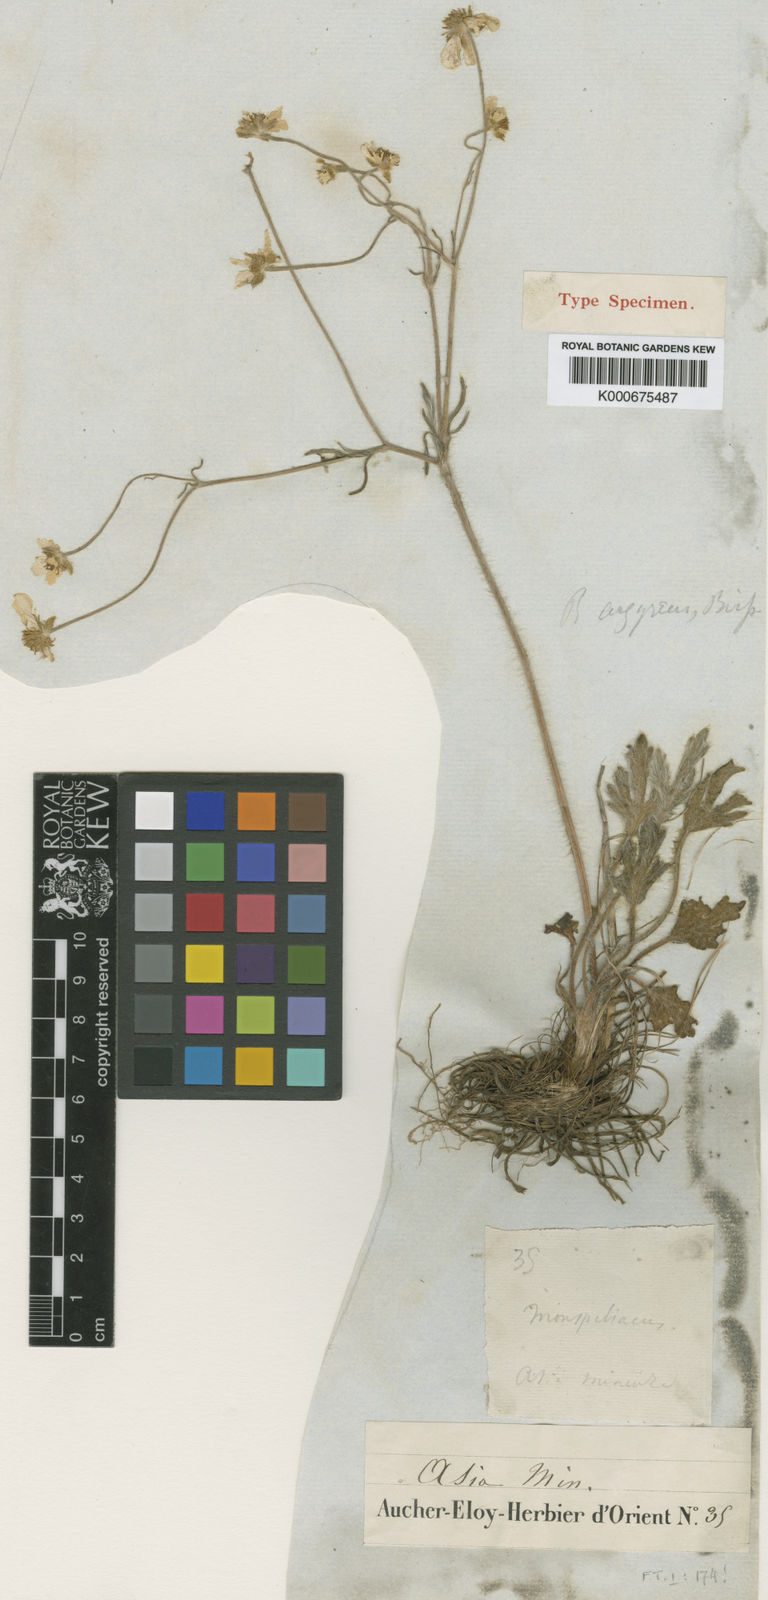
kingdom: Plantae
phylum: Tracheophyta
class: Magnoliopsida
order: Ranunculales
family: Ranunculaceae
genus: Ranunculus
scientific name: Ranunculus argyreus
